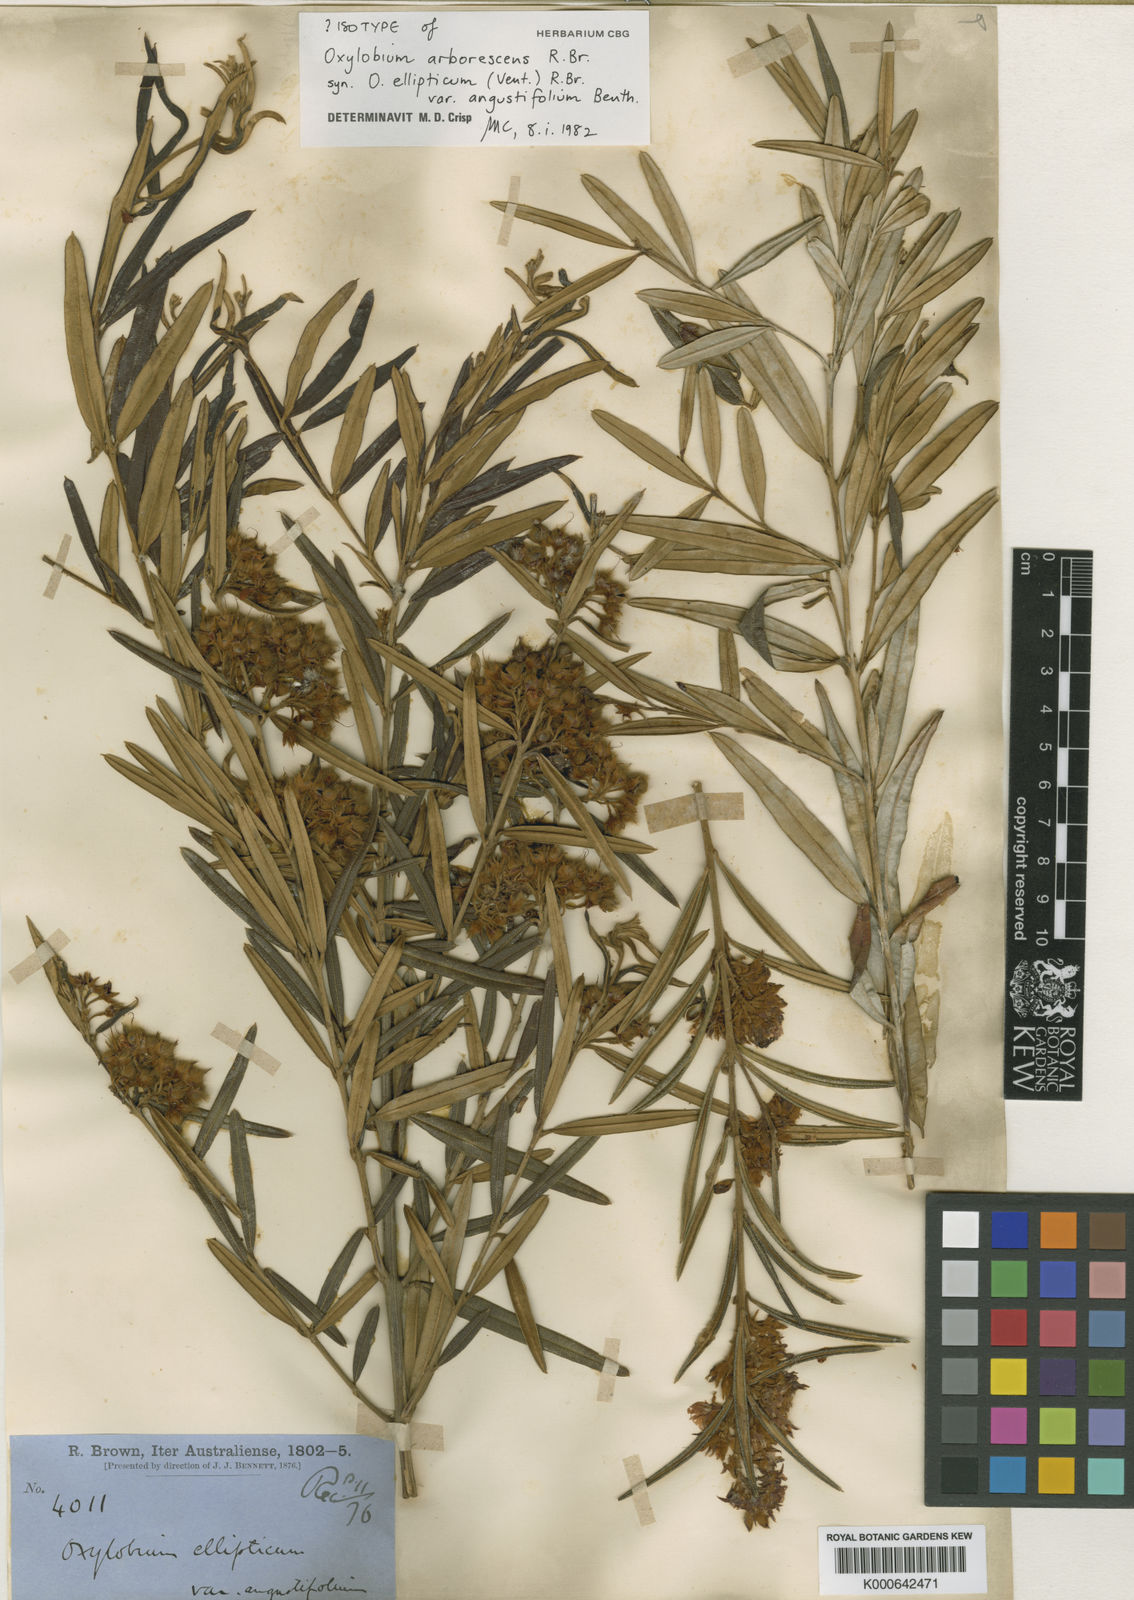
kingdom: Plantae
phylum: Tracheophyta
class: Magnoliopsida
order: Fabales
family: Fabaceae
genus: Oxylobium
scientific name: Oxylobium arborescens
